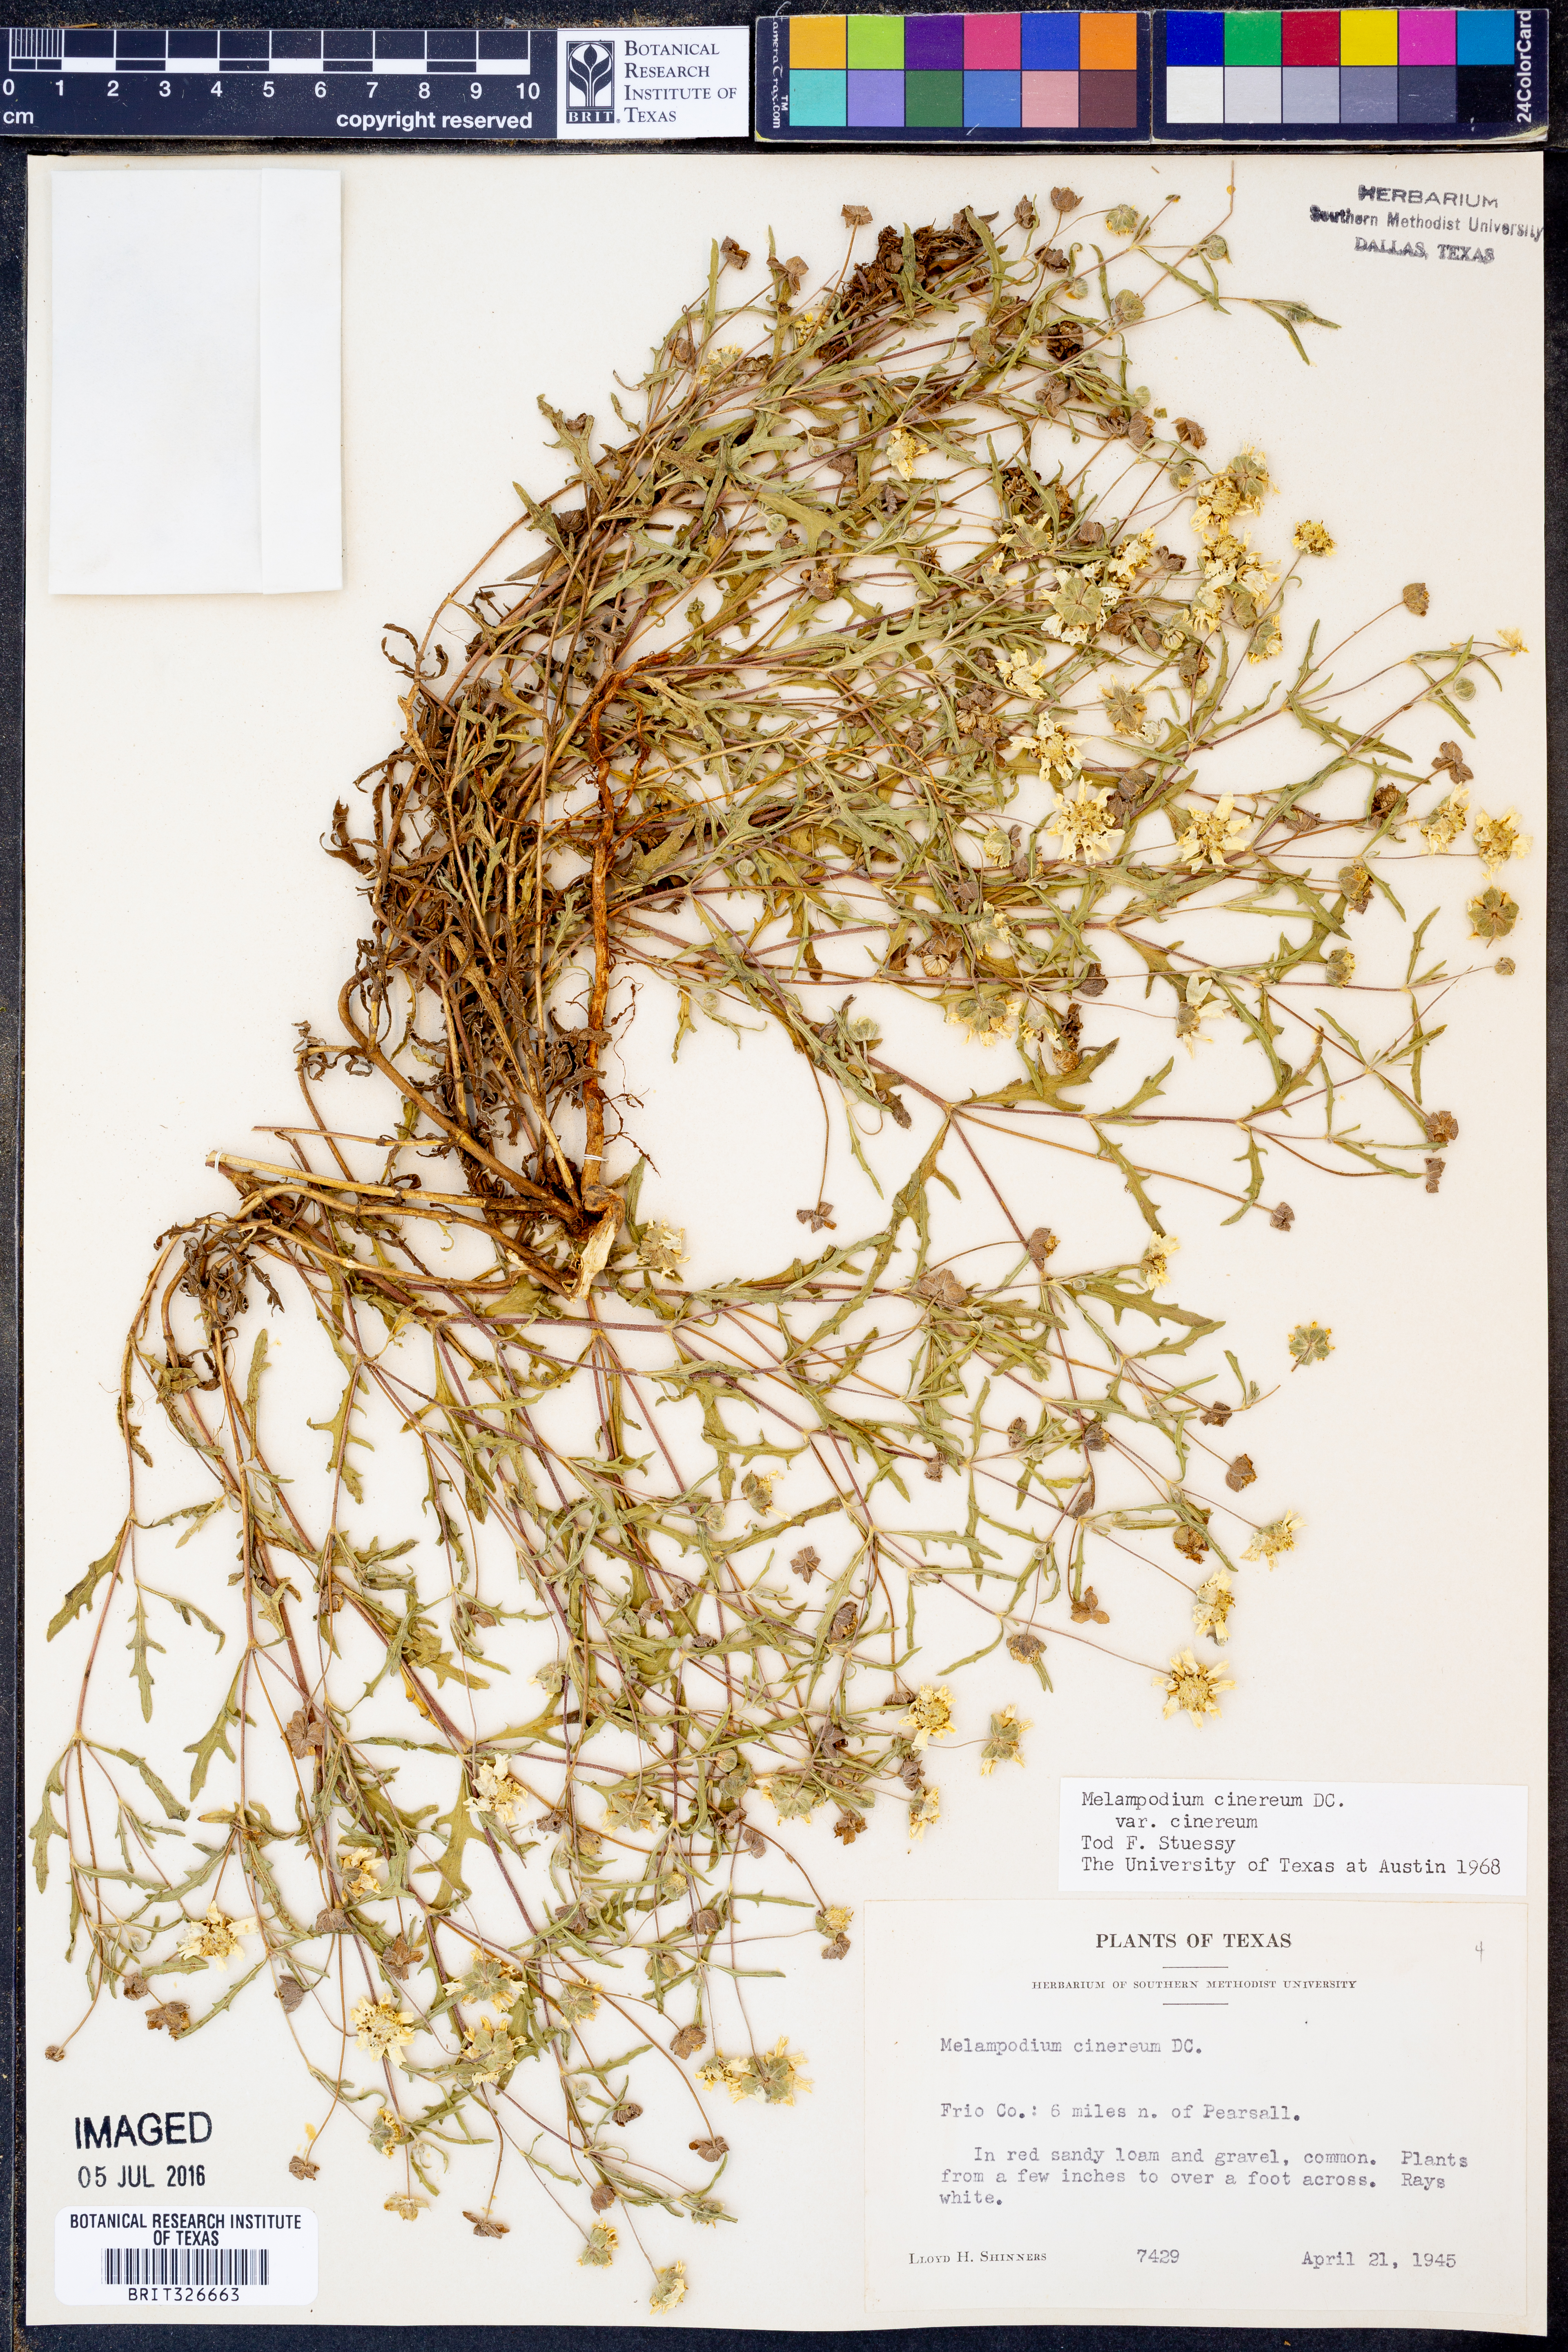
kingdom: Plantae
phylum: Tracheophyta
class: Magnoliopsida
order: Asterales
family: Asteraceae
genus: Melampodium
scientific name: Melampodium cinereum
